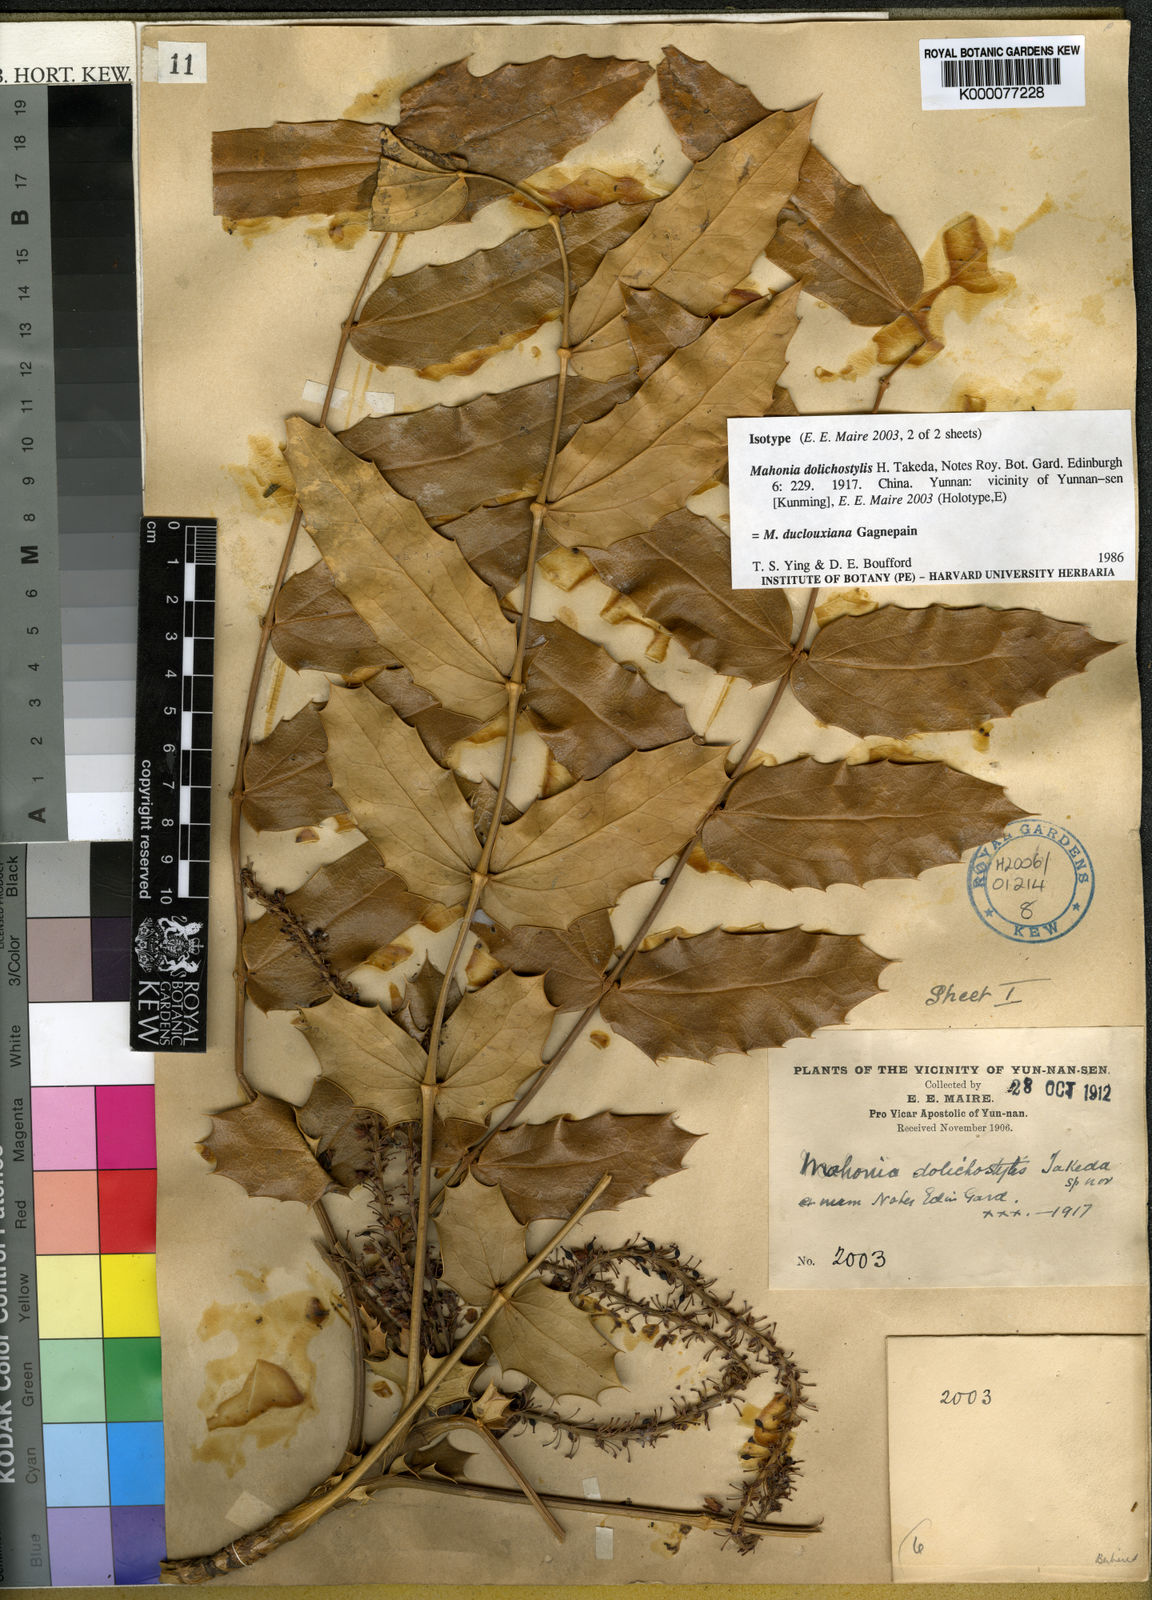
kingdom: Plantae
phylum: Tracheophyta
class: Magnoliopsida
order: Ranunculales
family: Berberidaceae
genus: Mahonia
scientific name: Mahonia napaulensis
